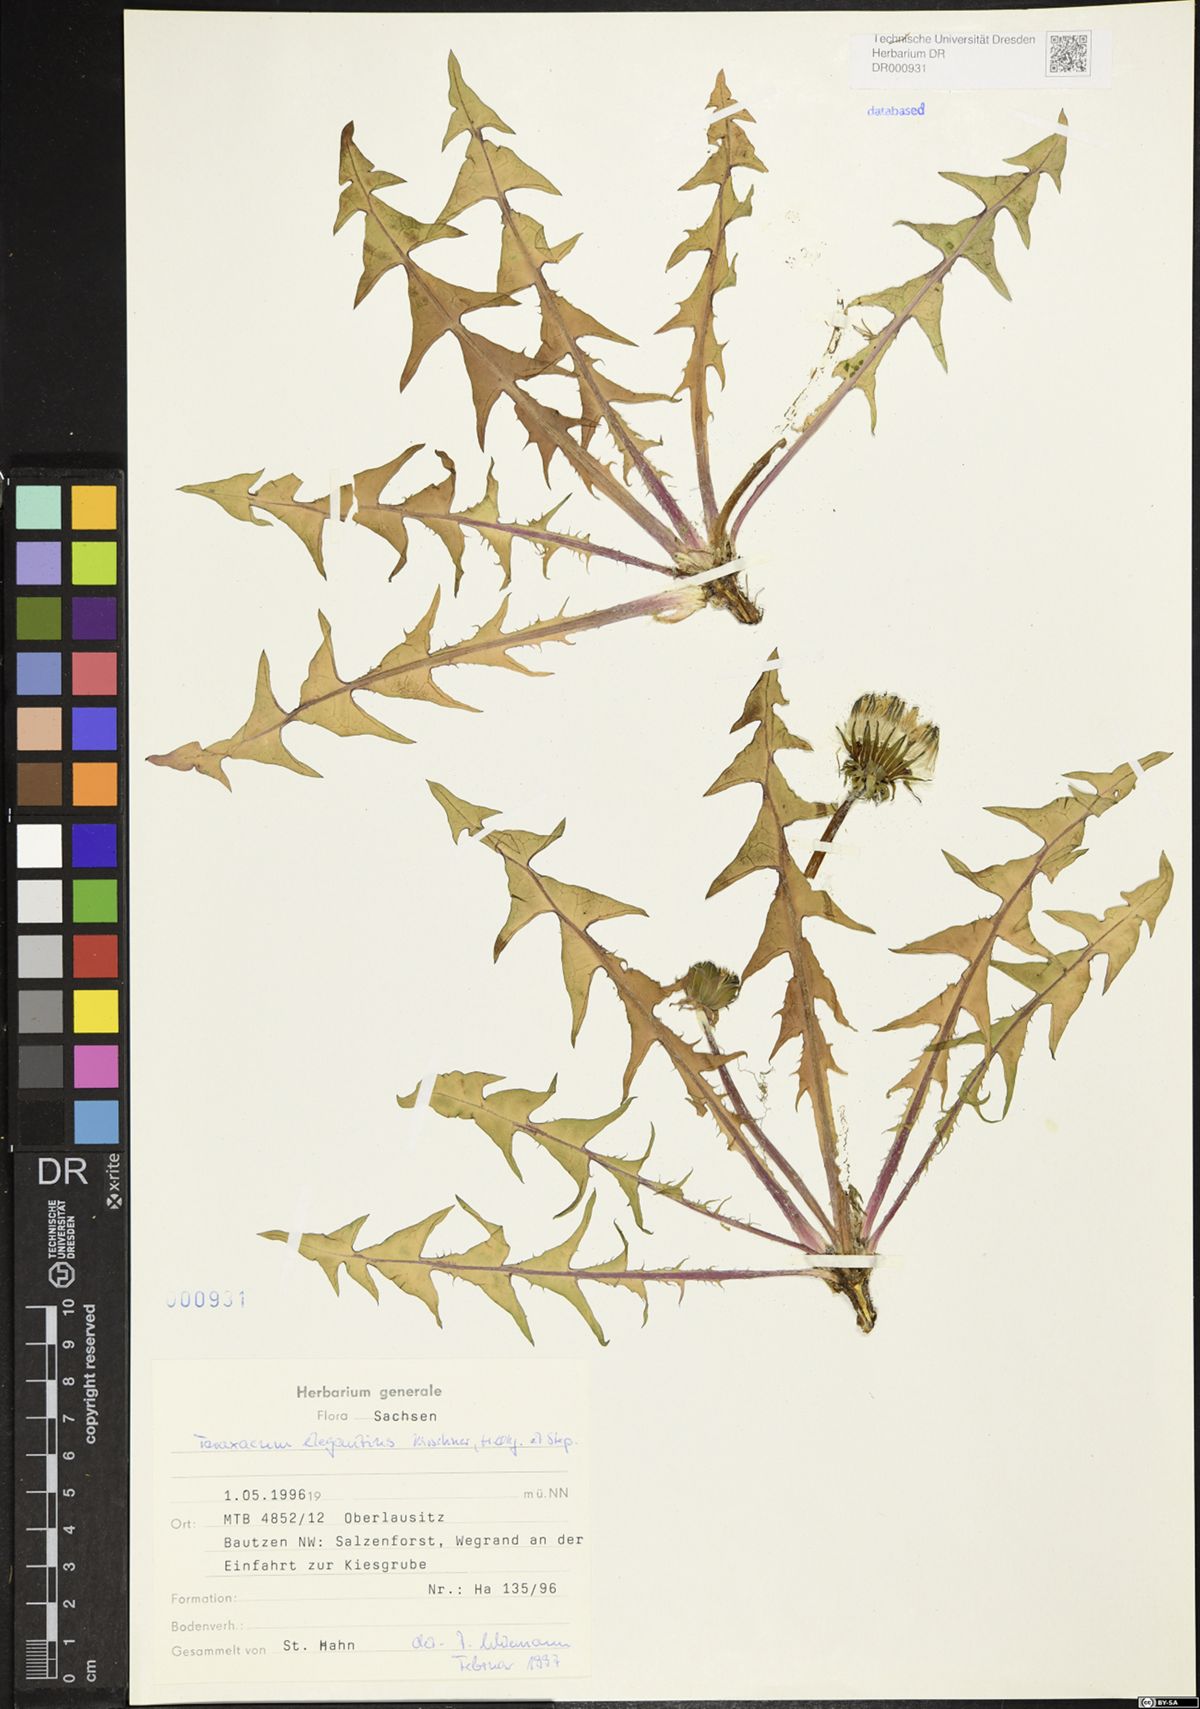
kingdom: Plantae
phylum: Tracheophyta
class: Magnoliopsida
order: Asterales
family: Asteraceae
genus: Taraxacum
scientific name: Taraxacum elegantius
